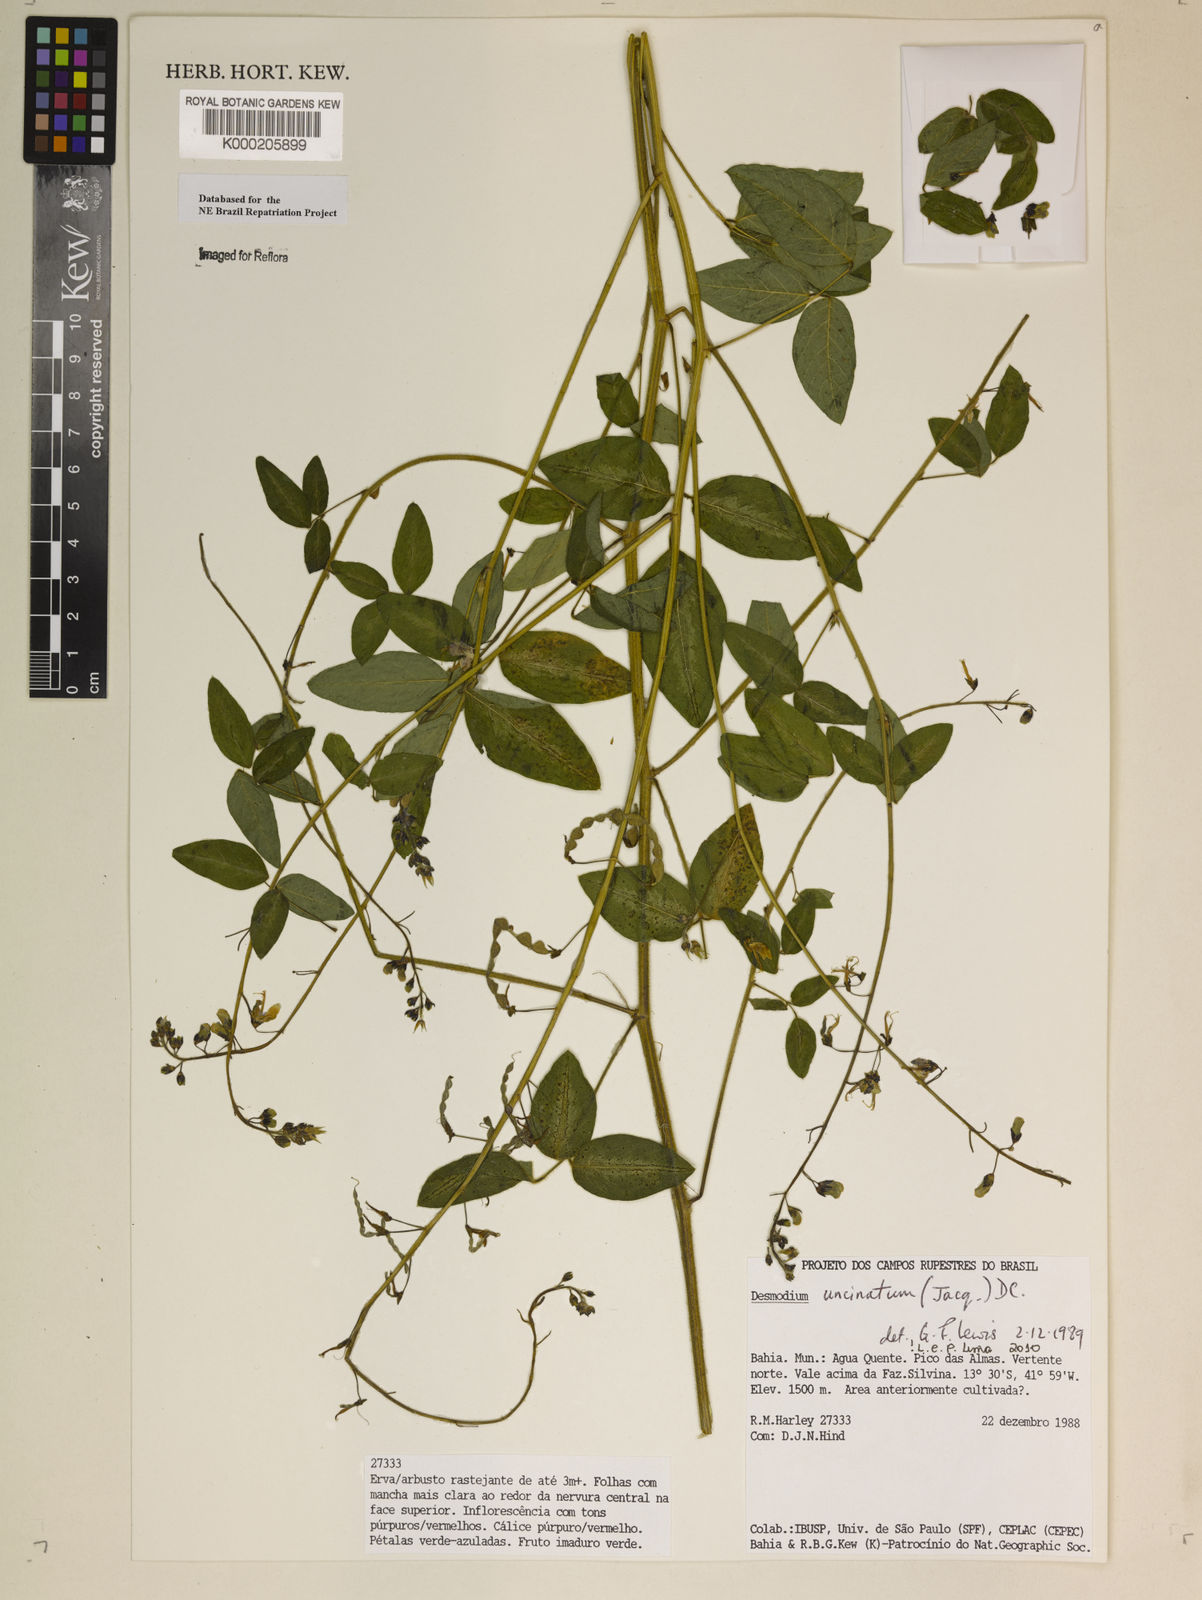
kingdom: Plantae
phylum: Tracheophyta
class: Magnoliopsida
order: Fabales
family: Fabaceae
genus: Desmodium
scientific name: Desmodium uncinatum
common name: Silverleaf desmodium
